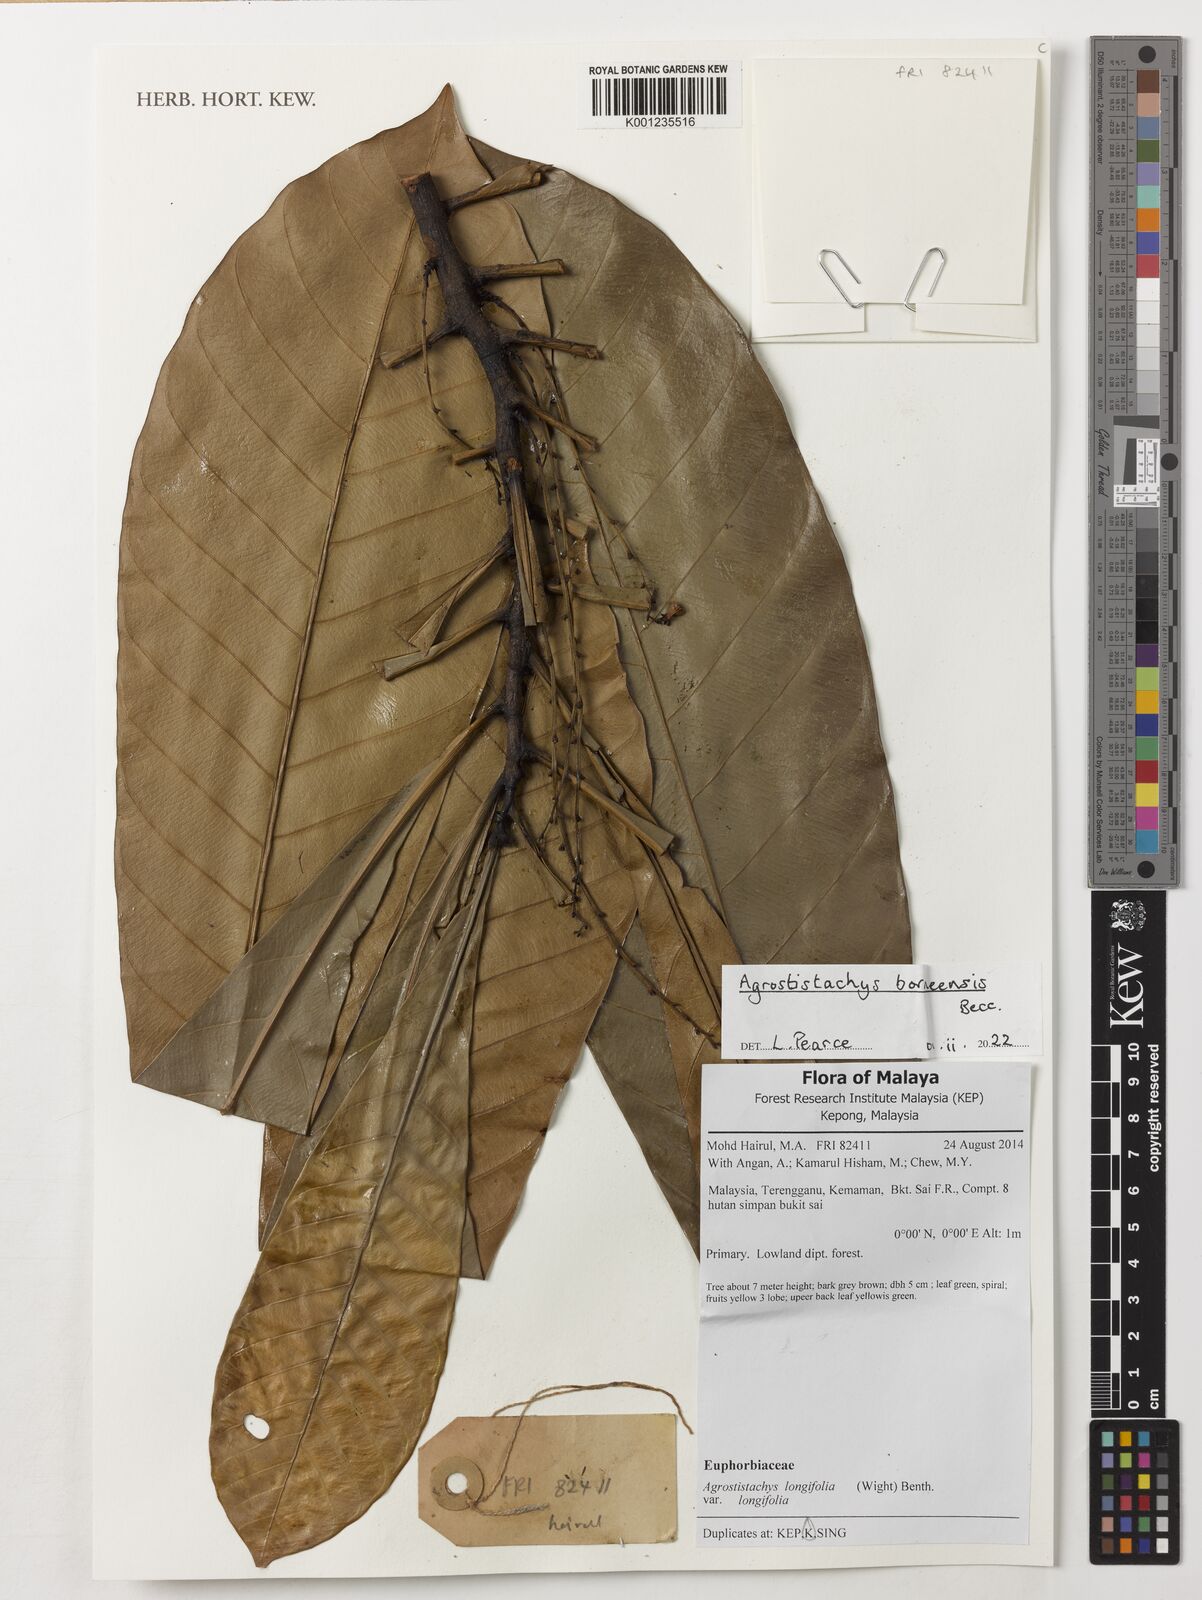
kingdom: Plantae
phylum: Tracheophyta
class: Magnoliopsida
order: Malpighiales
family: Euphorbiaceae
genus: Agrostistachys
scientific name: Agrostistachys borneensis
